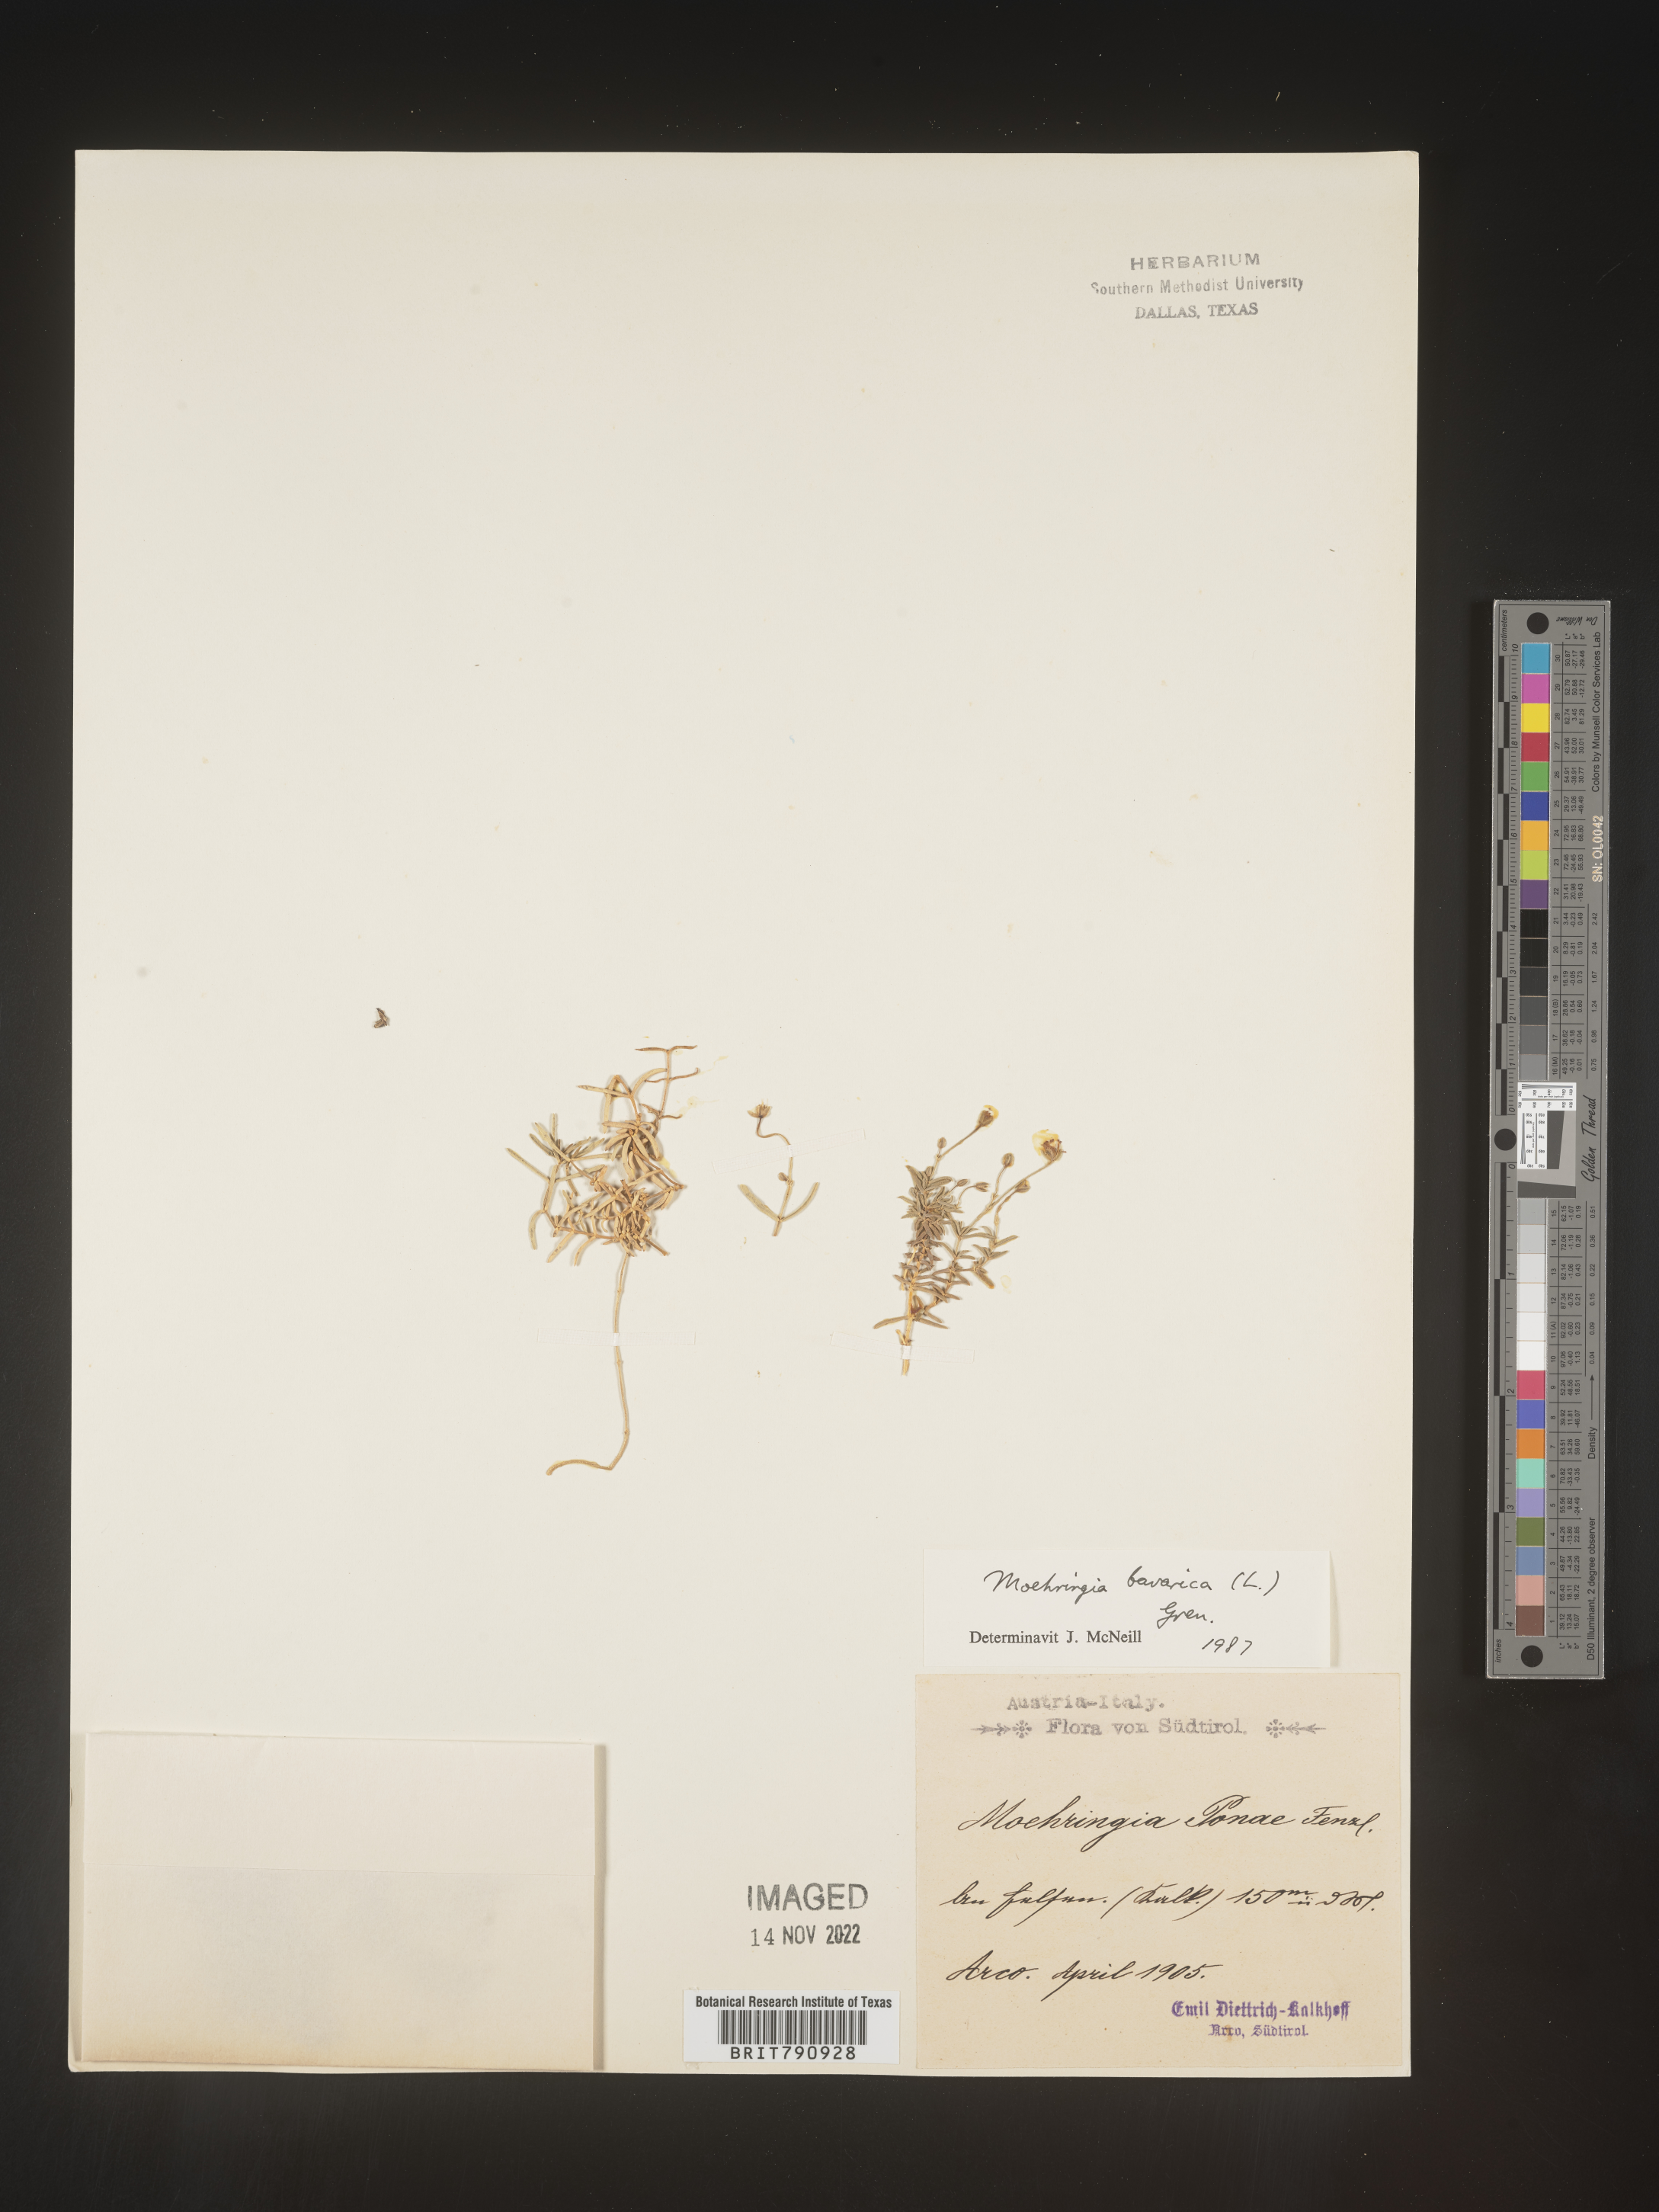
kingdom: Plantae
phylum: Tracheophyta
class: Magnoliopsida
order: Caryophyllales
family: Caryophyllaceae
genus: Moehringia
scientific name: Moehringia
